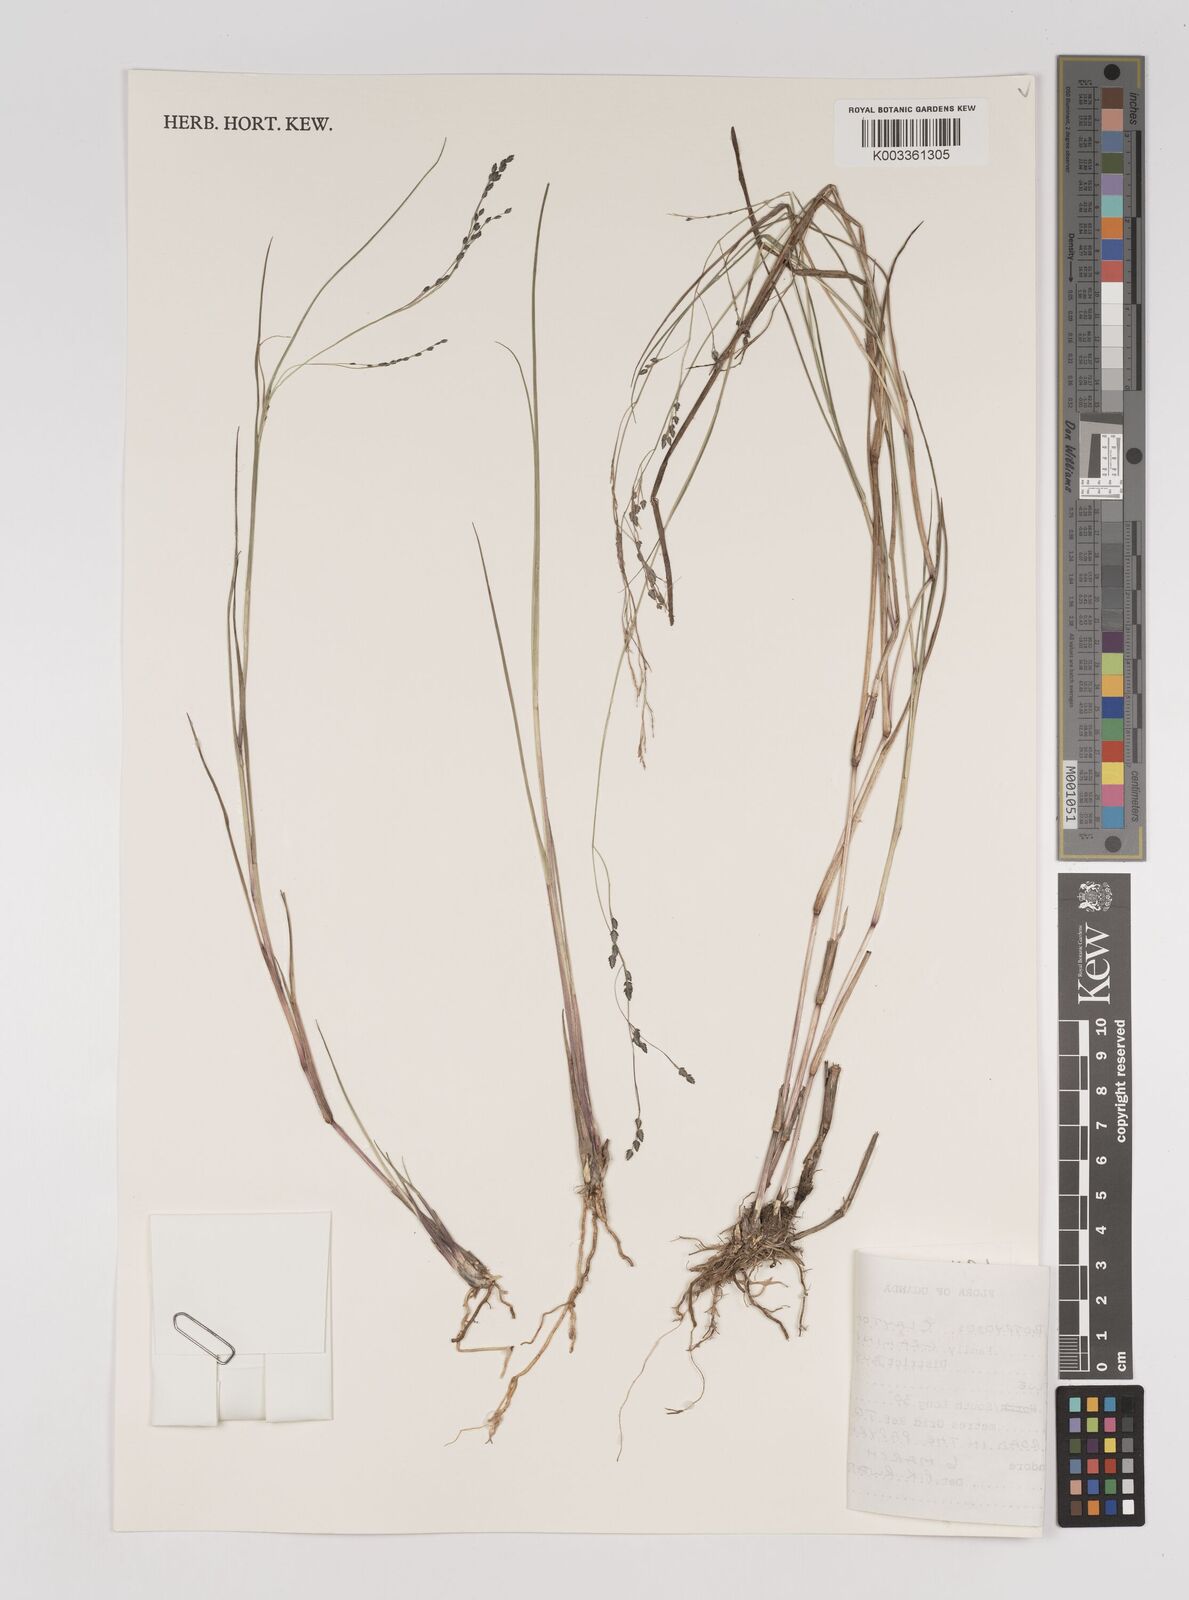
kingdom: Plantae
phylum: Tracheophyta
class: Liliopsida
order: Poales
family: Poaceae
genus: Eragrostis
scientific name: Eragrostis botryodes
